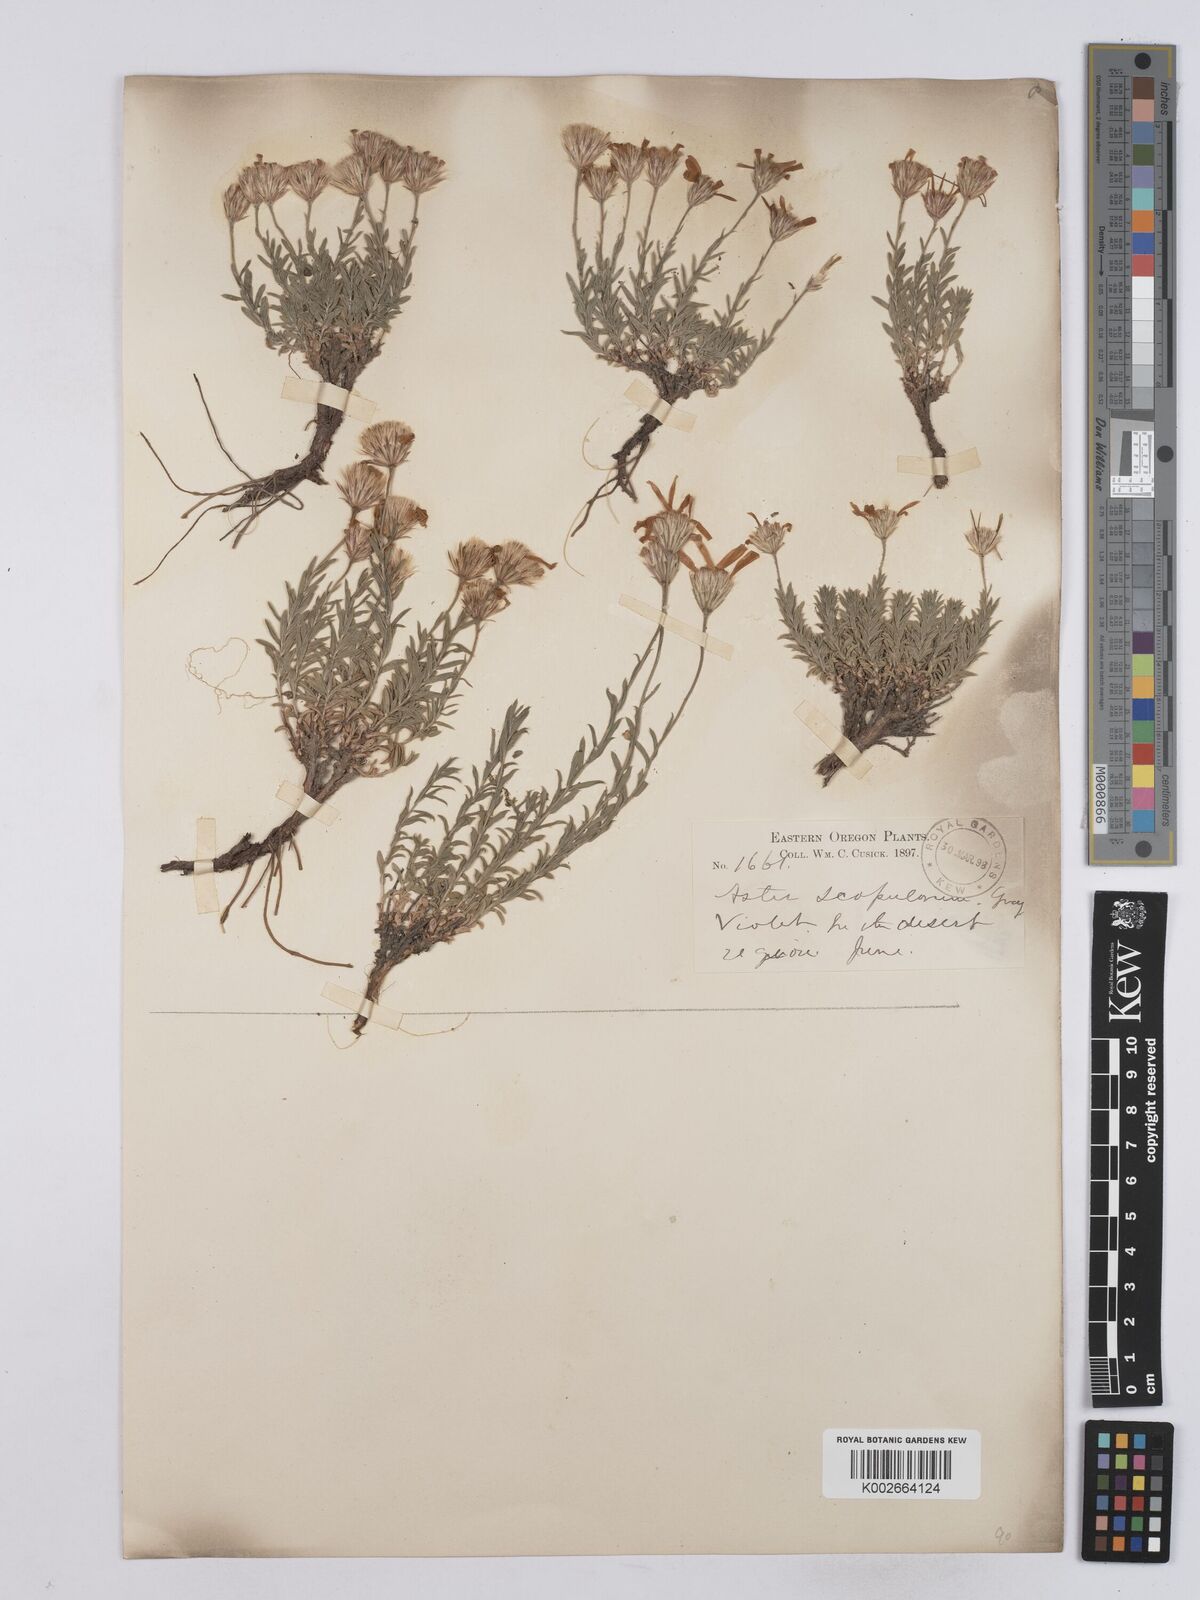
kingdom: Plantae
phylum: Tracheophyta
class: Magnoliopsida
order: Asterales
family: Asteraceae
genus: Ionactis
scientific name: Ionactis alpina
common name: Crag aster
